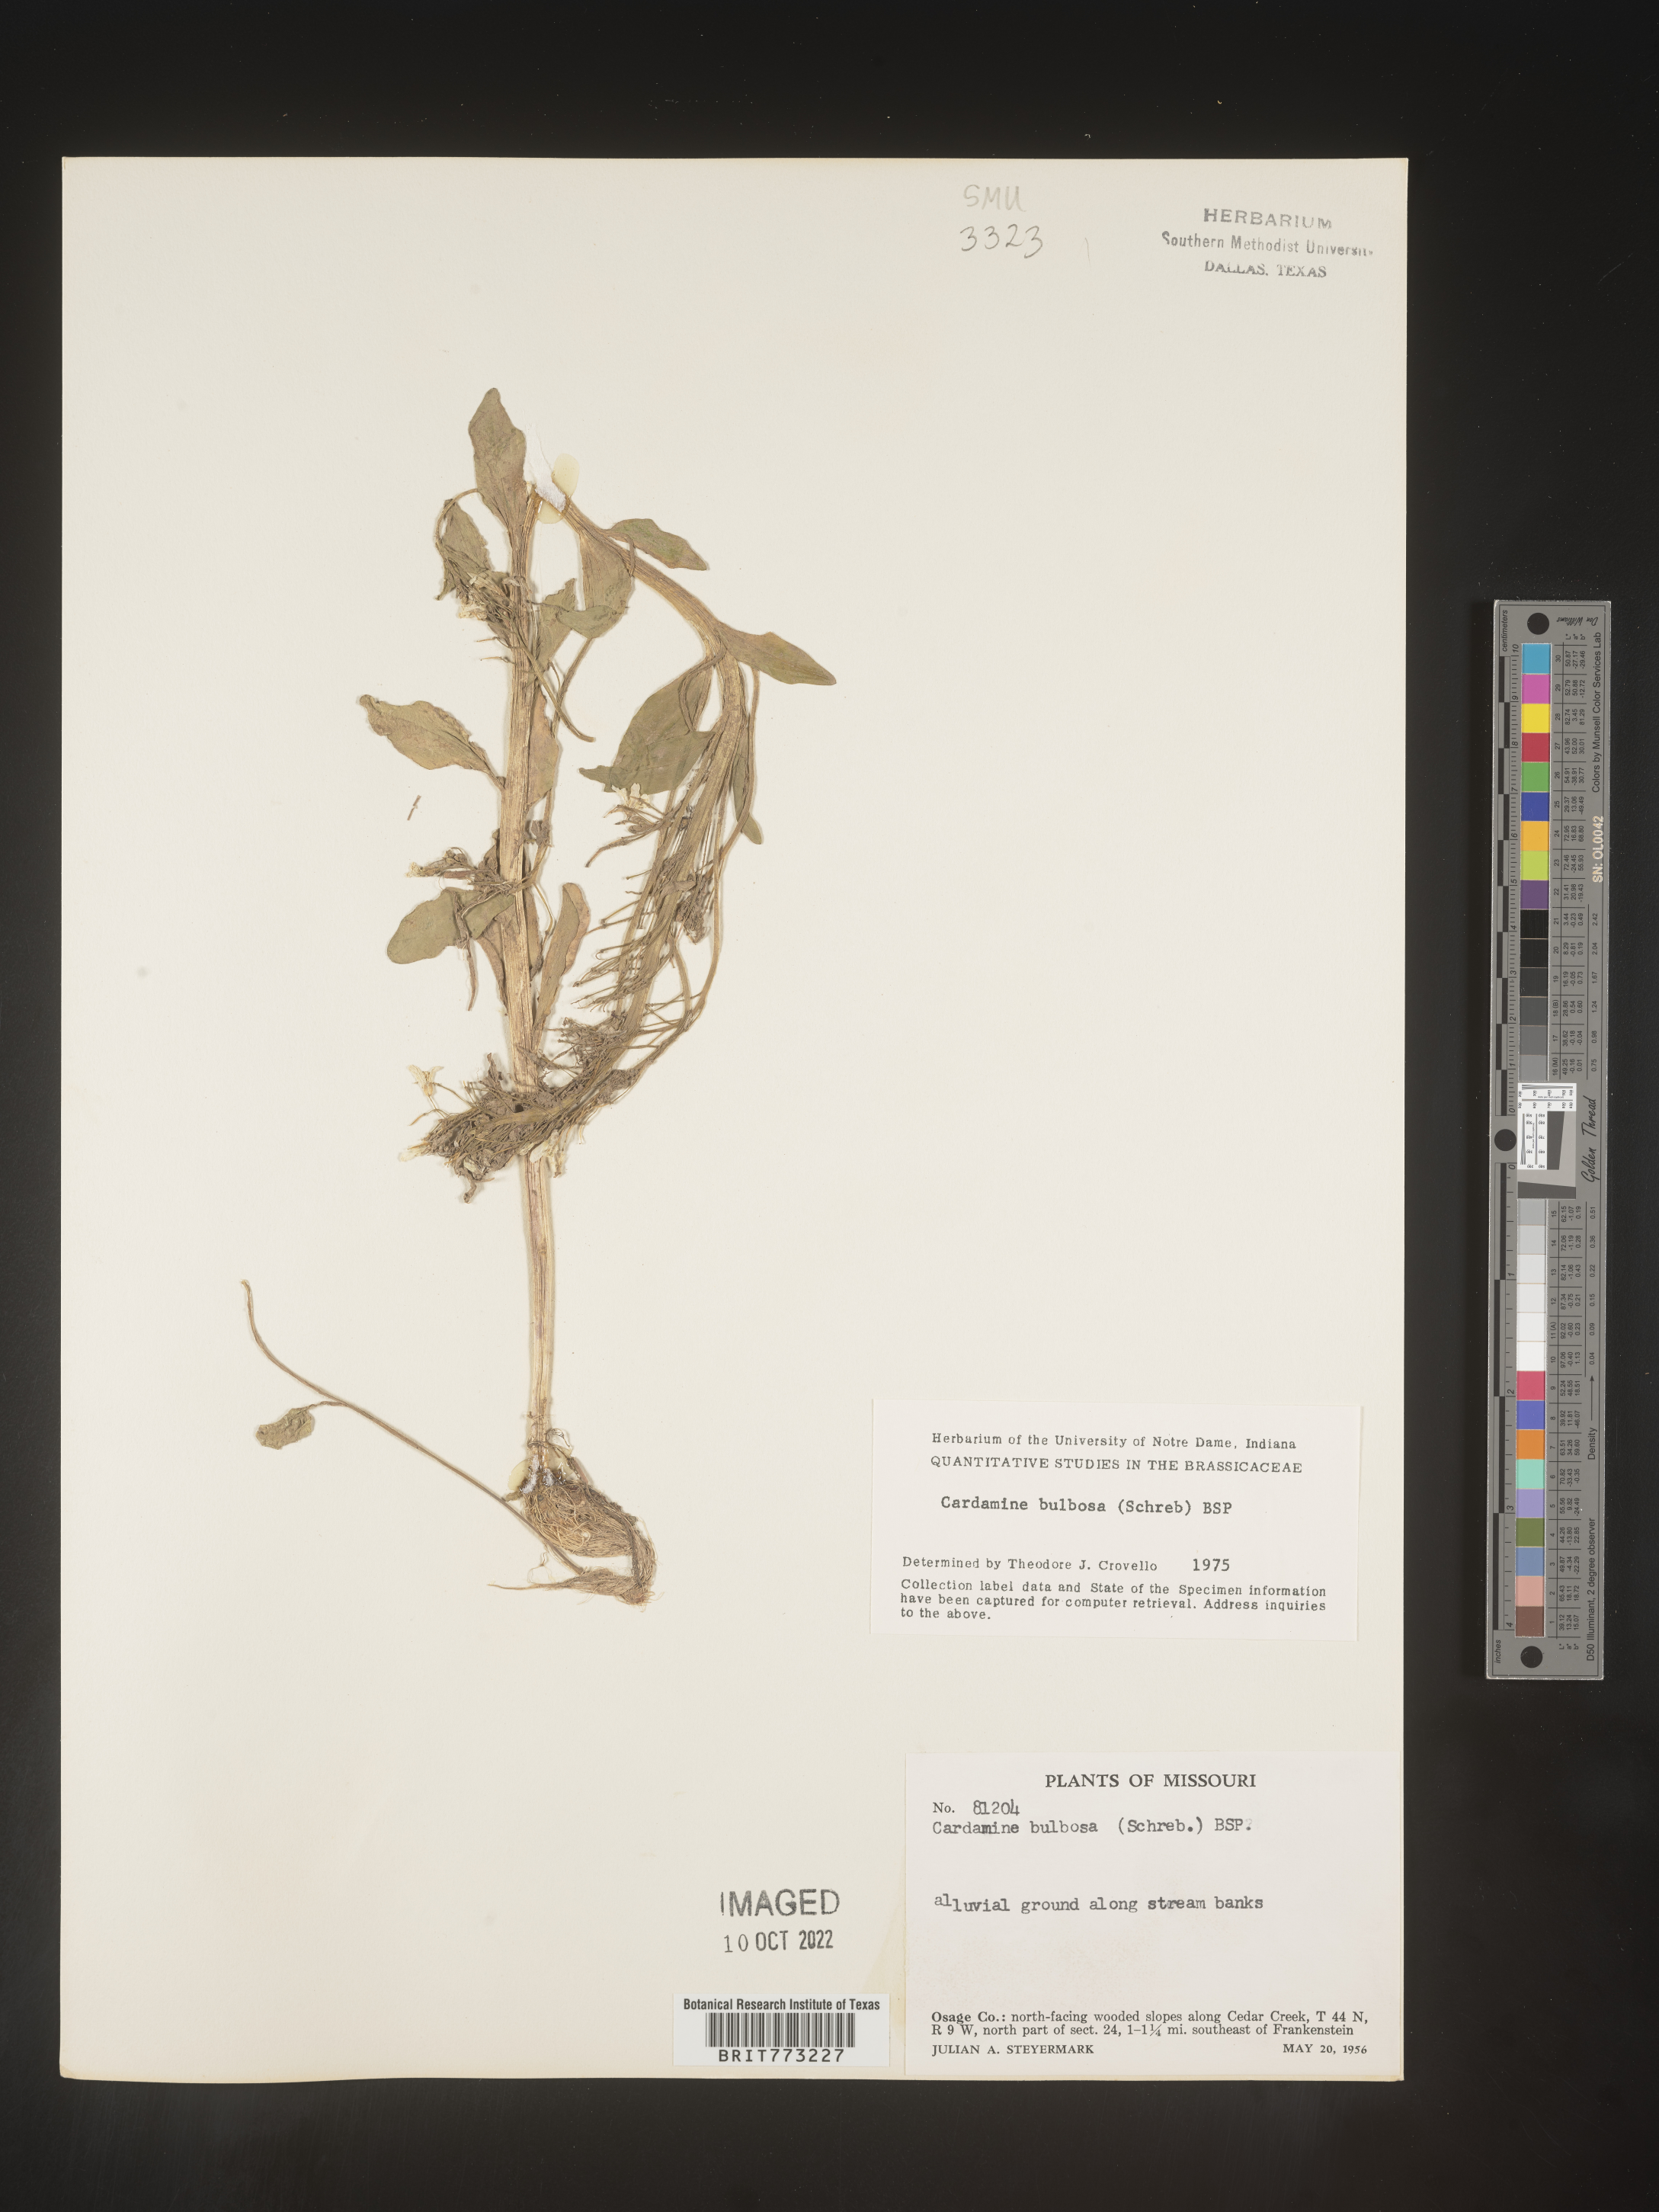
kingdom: Plantae
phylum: Tracheophyta
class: Magnoliopsida
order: Brassicales
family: Brassicaceae
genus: Cardamine
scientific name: Cardamine bulbosa
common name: Spring cress
